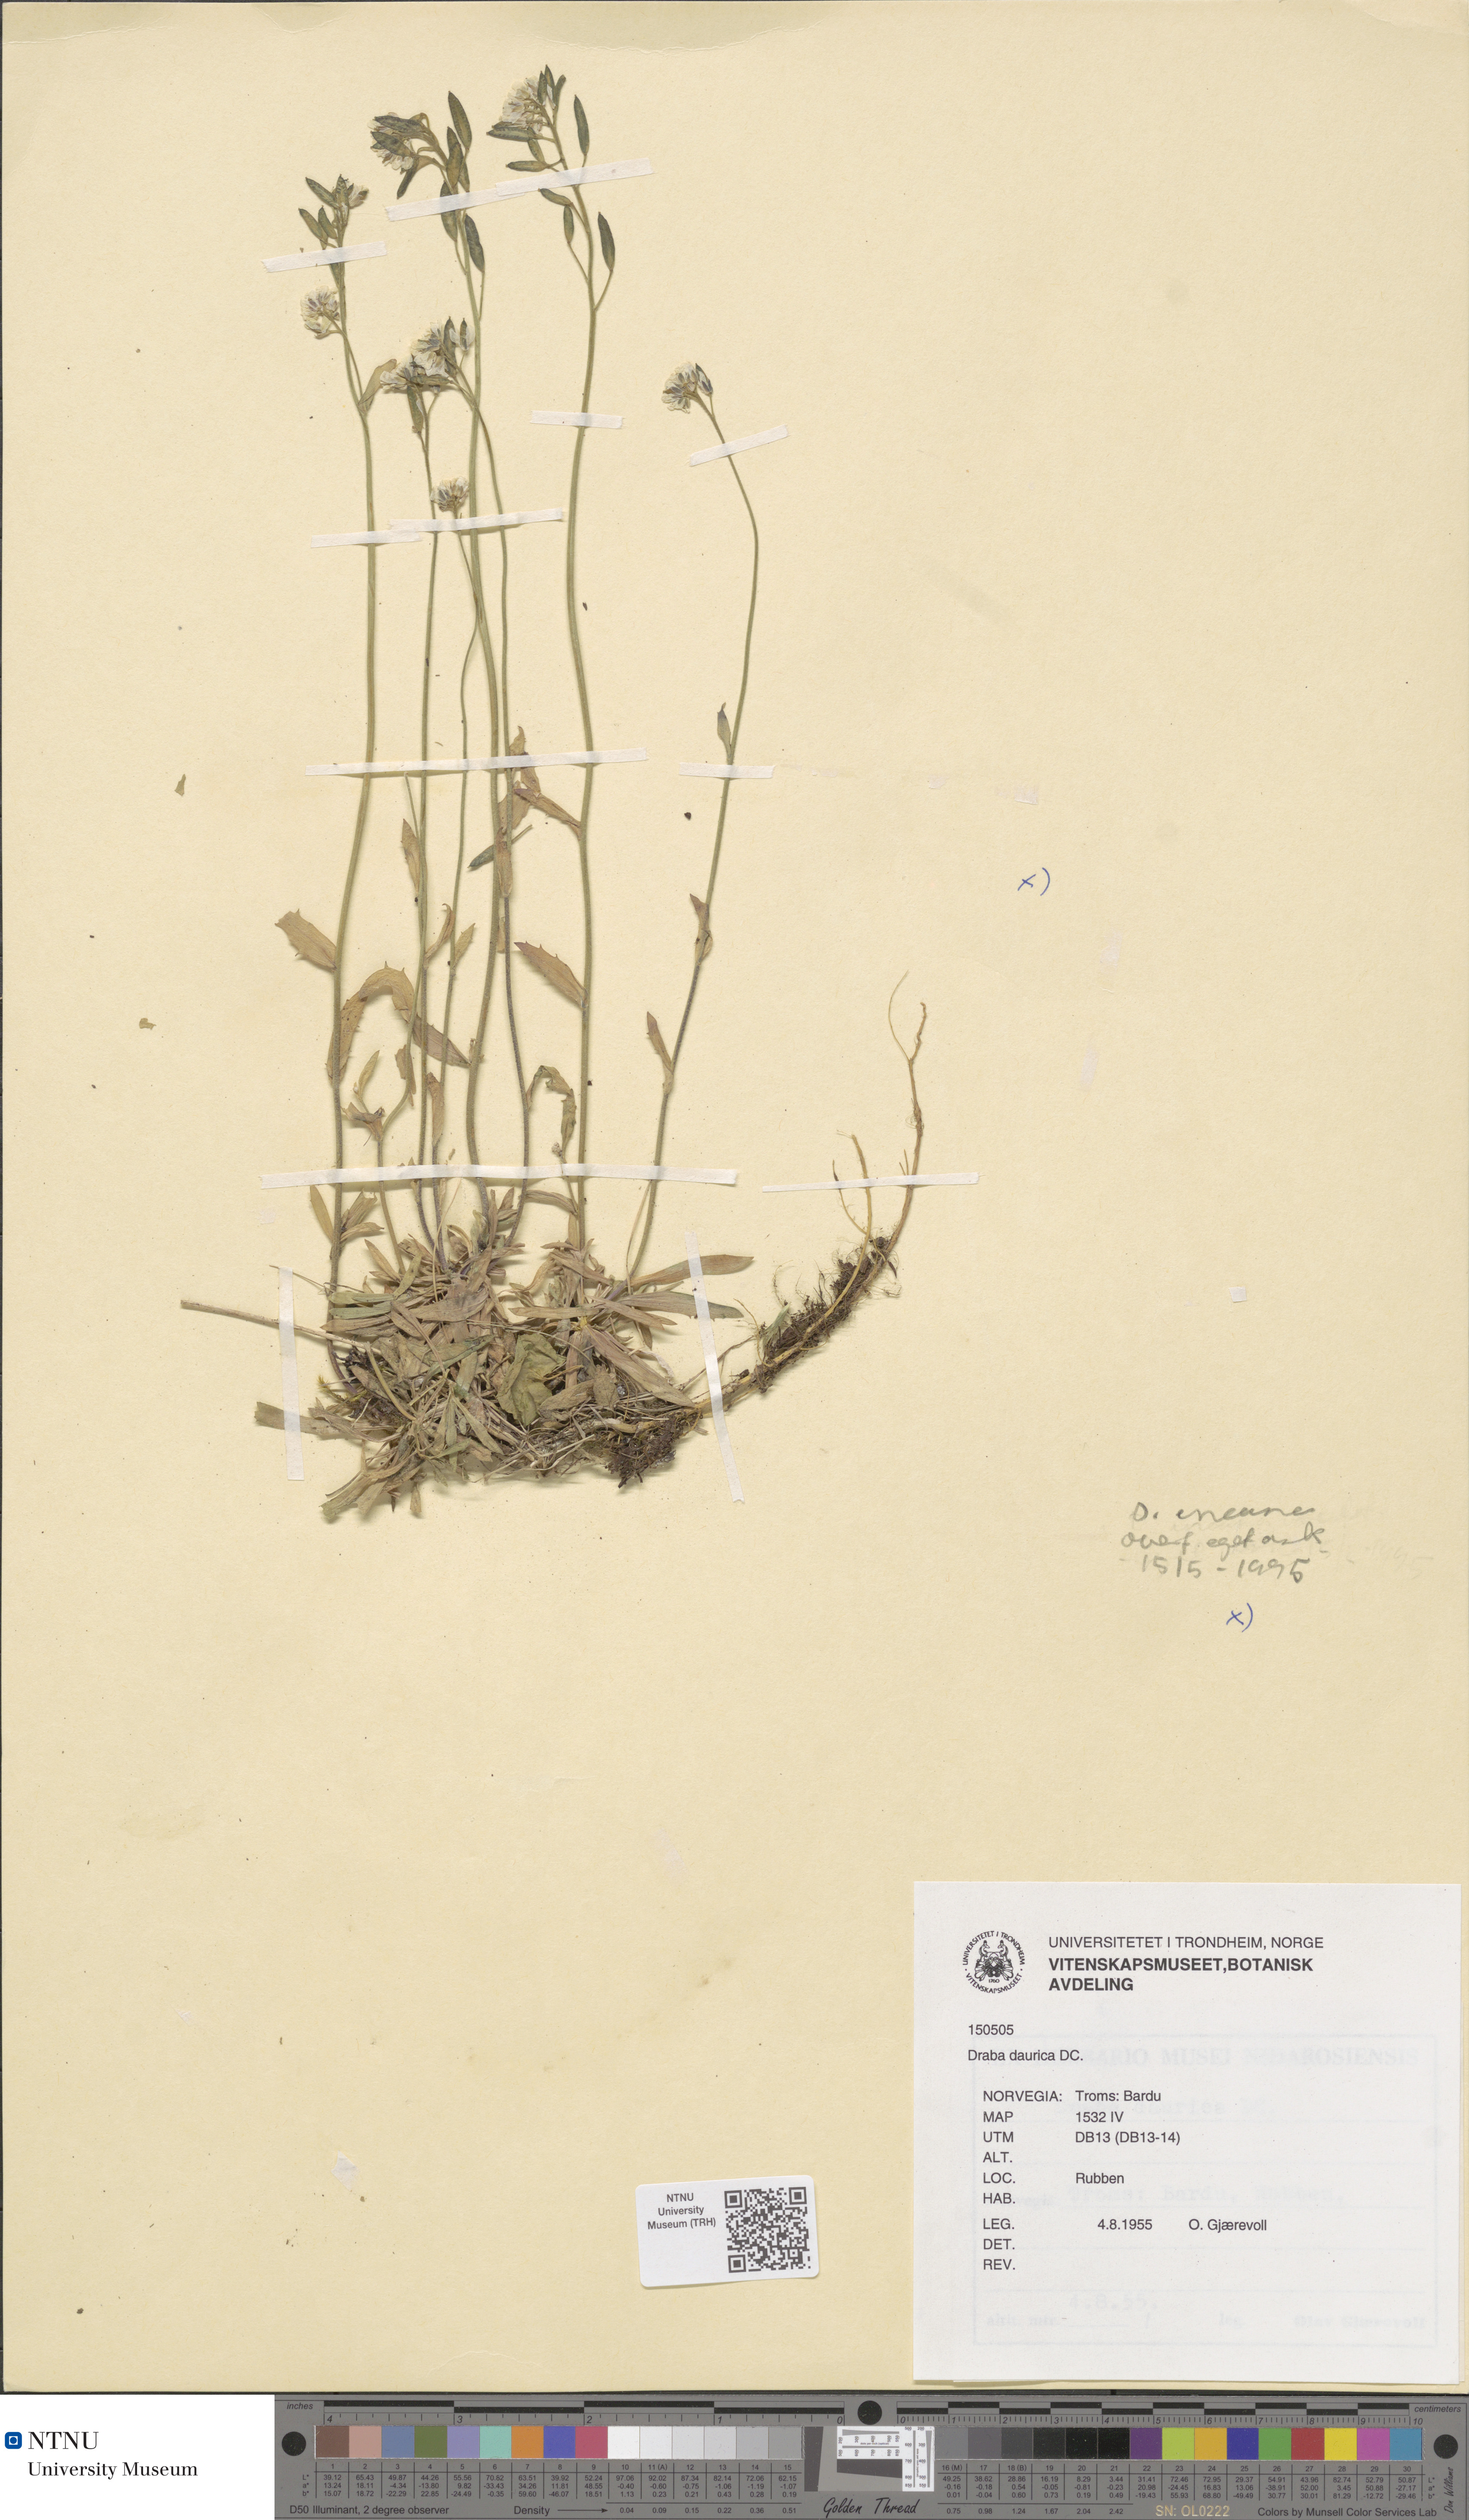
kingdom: Plantae
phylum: Tracheophyta
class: Magnoliopsida
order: Brassicales
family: Brassicaceae
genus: Draba
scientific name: Draba glabella
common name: Glaucous draba
